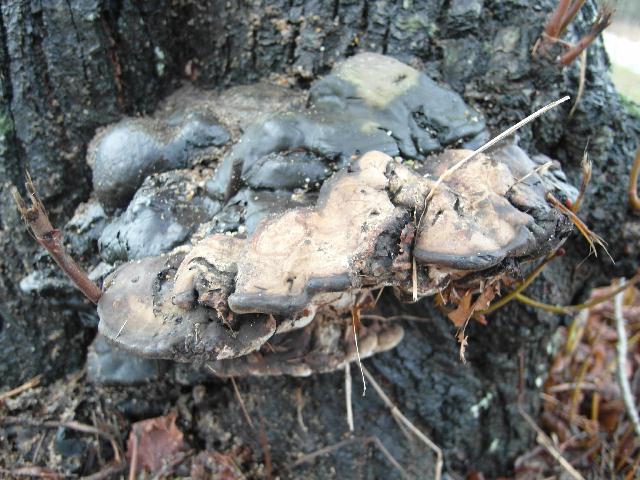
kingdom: Fungi
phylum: Basidiomycota
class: Agaricomycetes
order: Polyporales
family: Polyporaceae
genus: Ganoderma
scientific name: Ganoderma adspersum
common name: grov lakporesvamp
